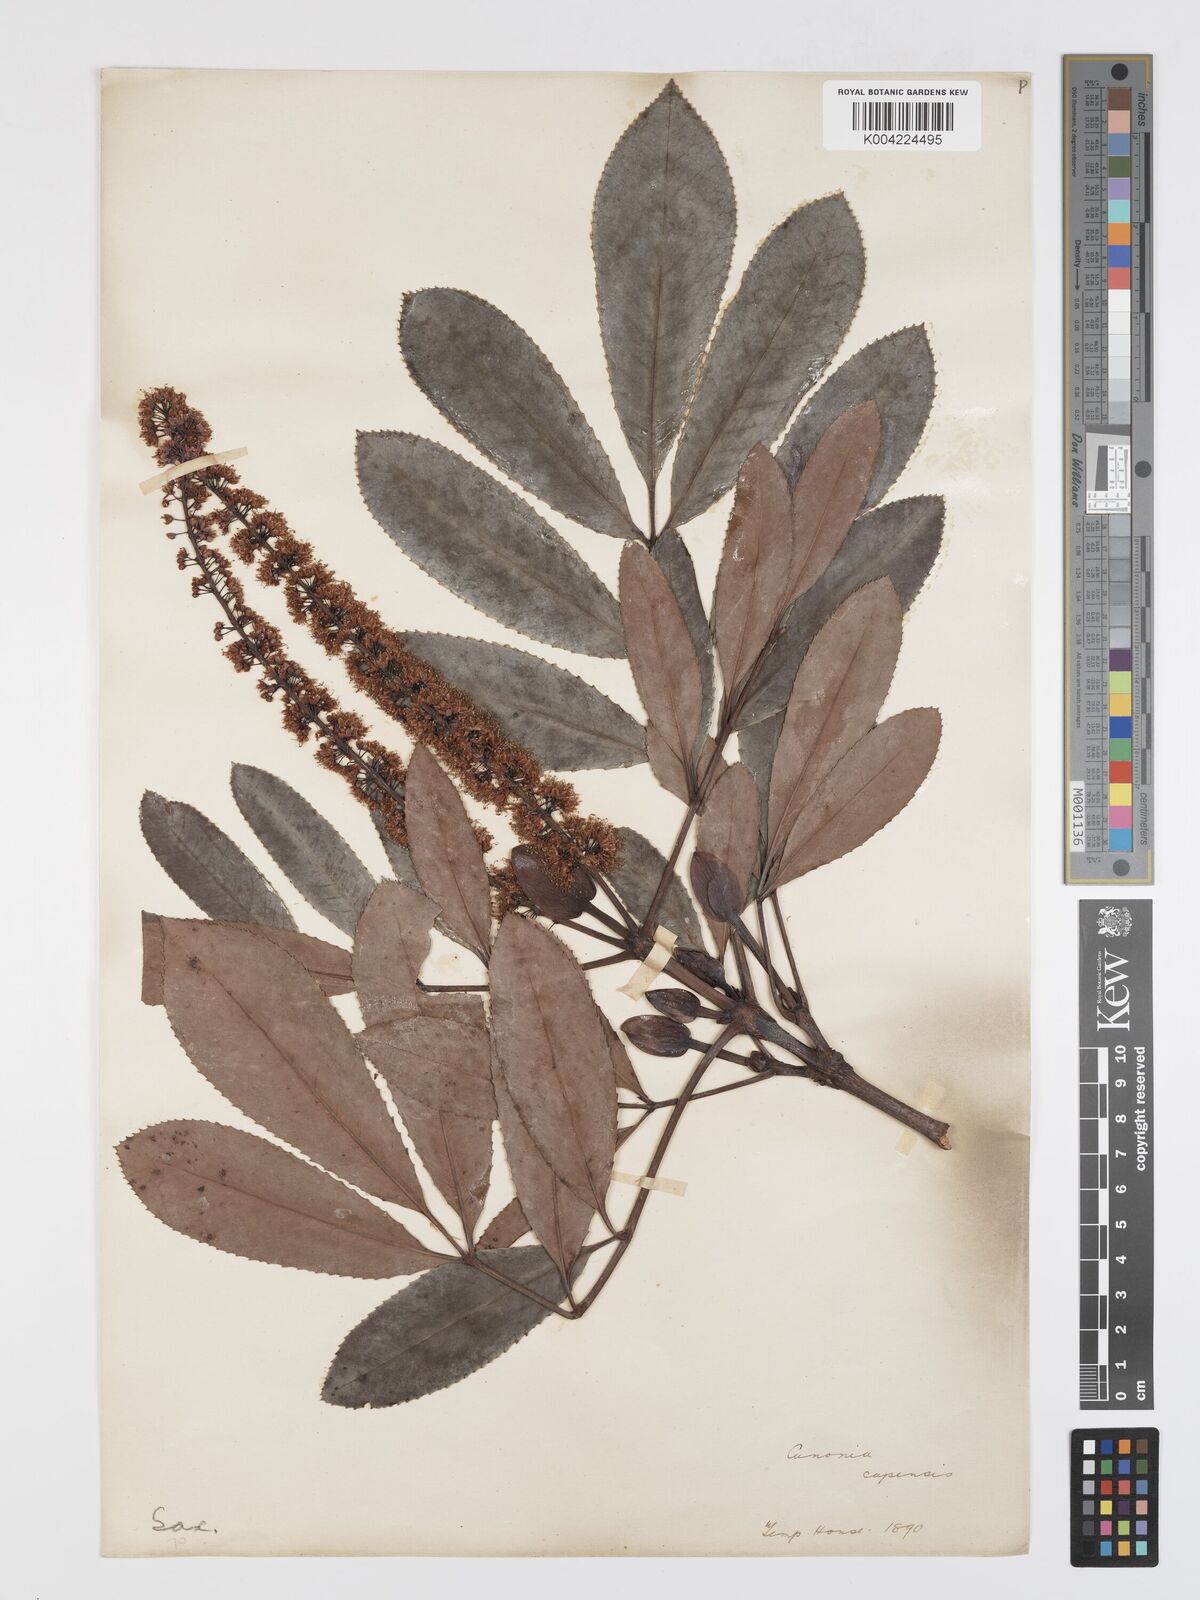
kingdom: Plantae
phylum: Tracheophyta
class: Magnoliopsida
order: Oxalidales
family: Cunoniaceae
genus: Cunonia
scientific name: Cunonia capensis
